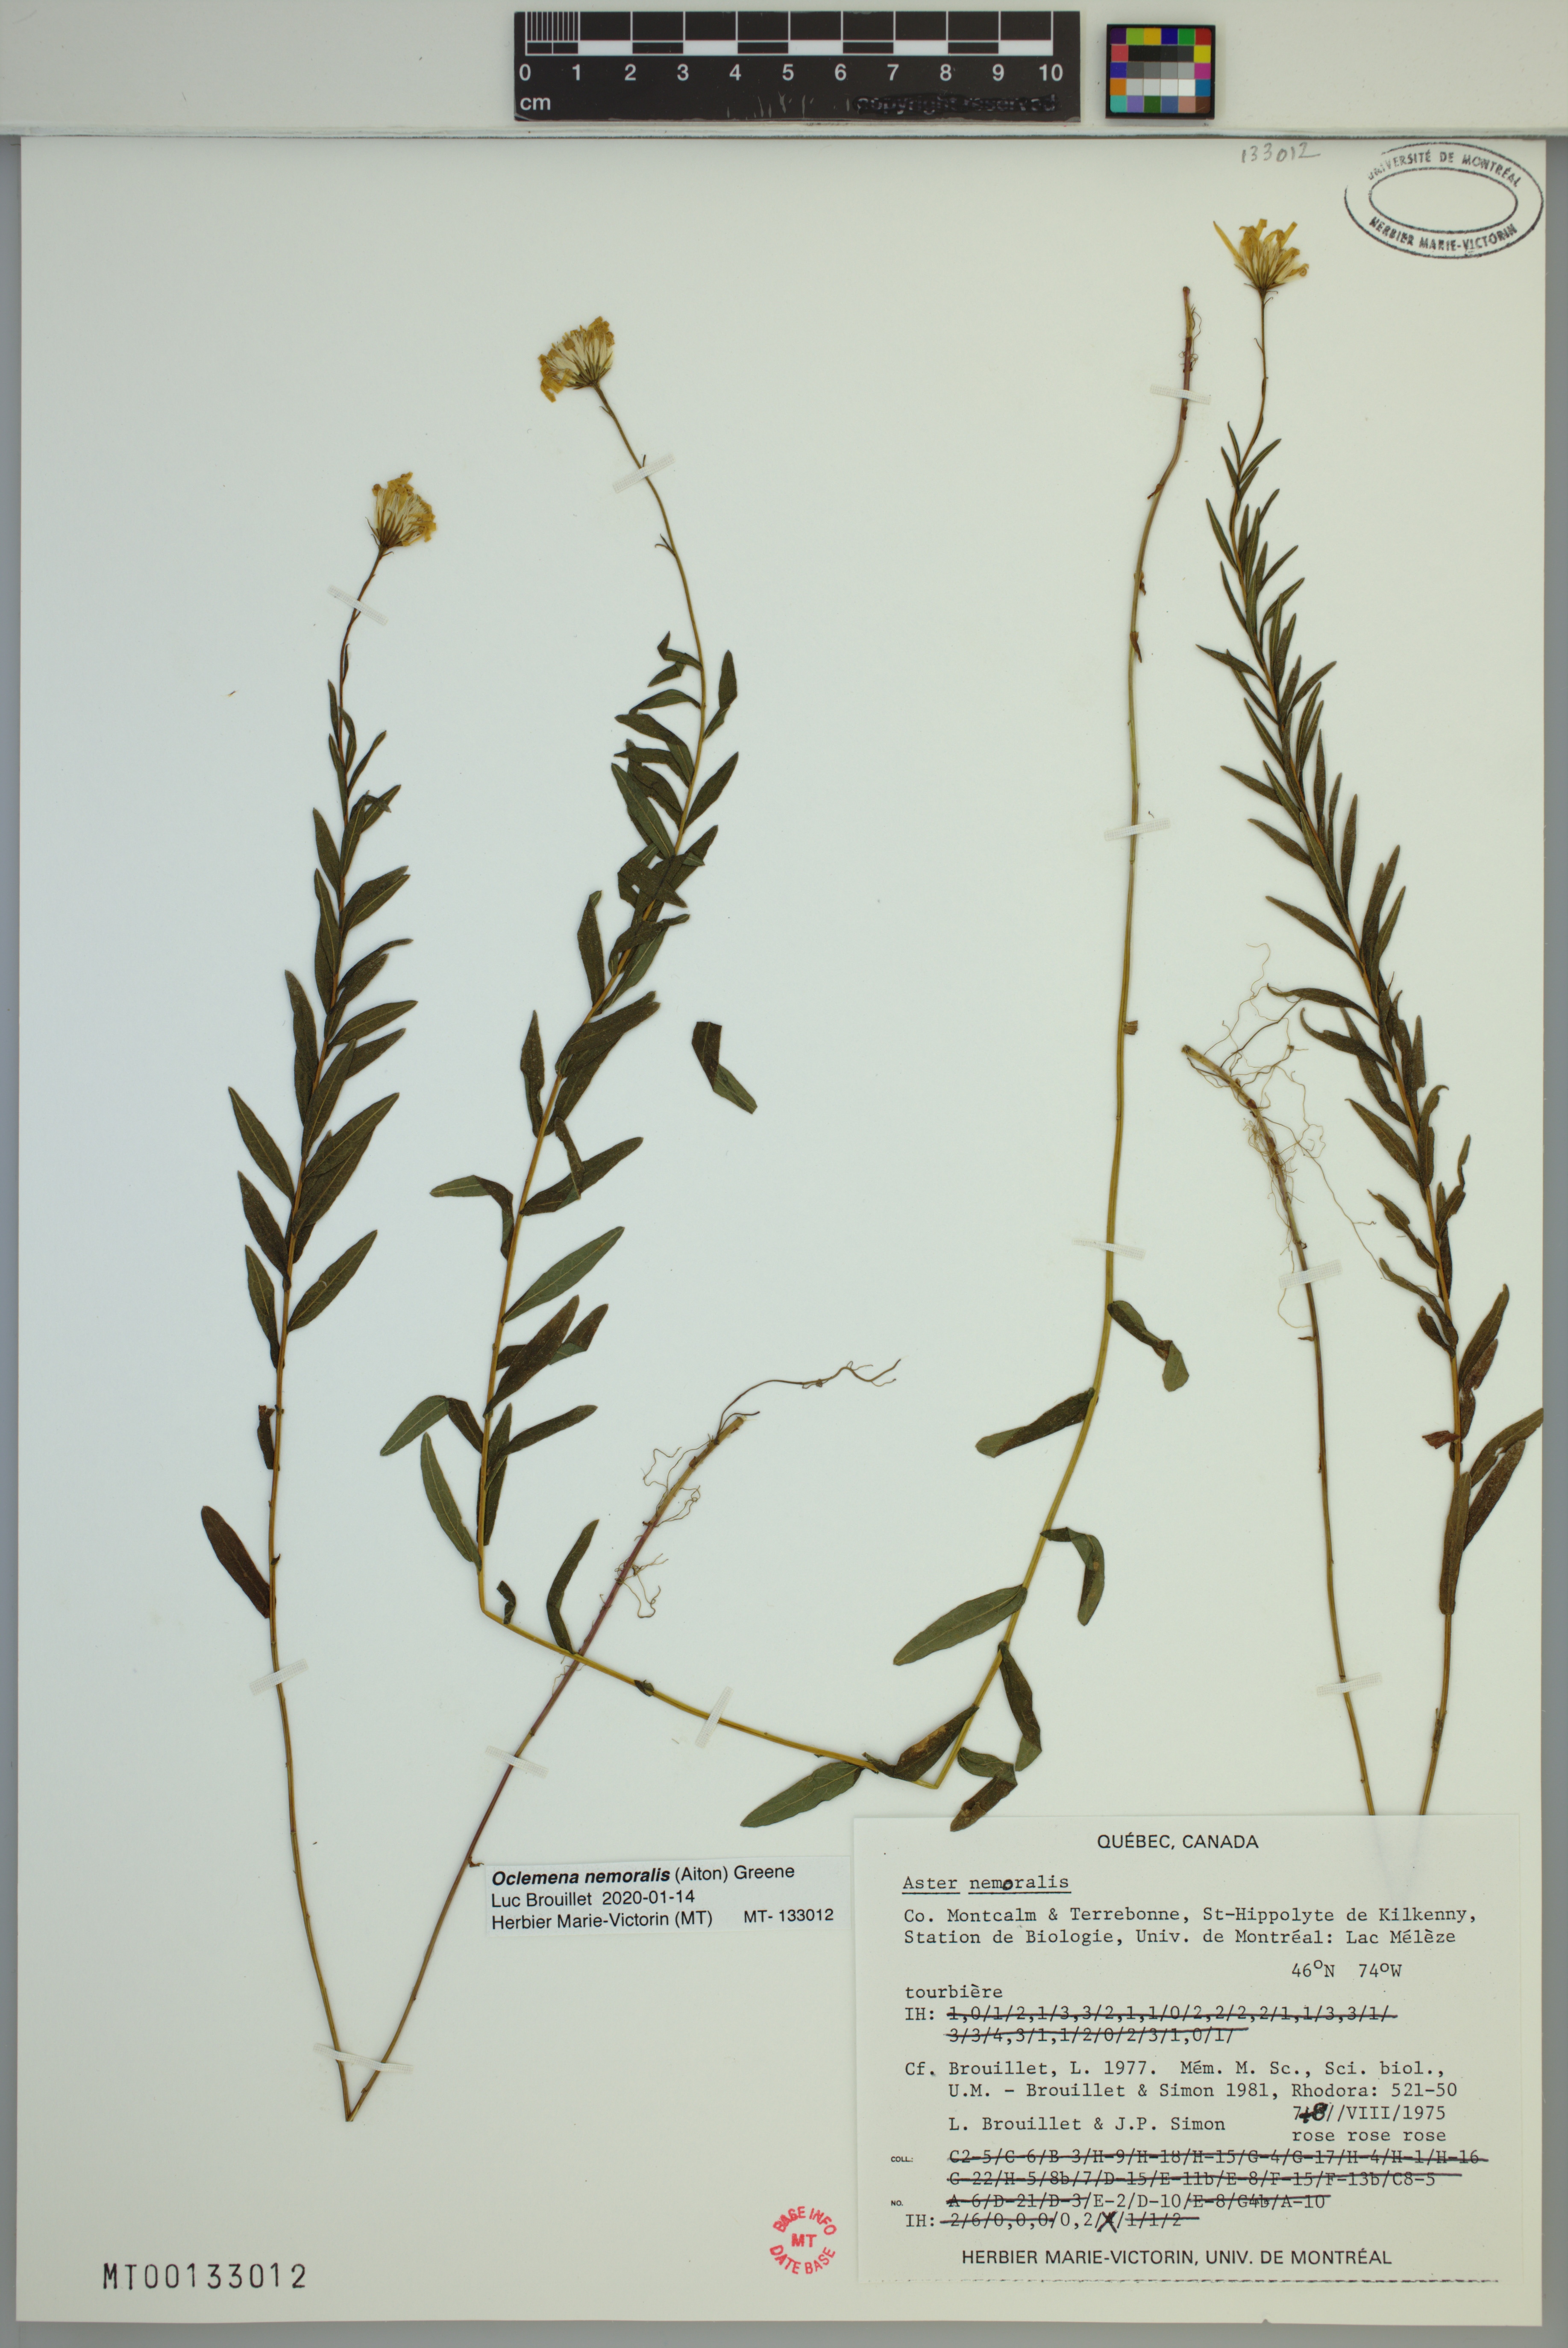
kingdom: Plantae
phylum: Tracheophyta
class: Magnoliopsida
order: Asterales
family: Asteraceae
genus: Oclemena
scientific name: Oclemena nemoralis
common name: Bog aster
